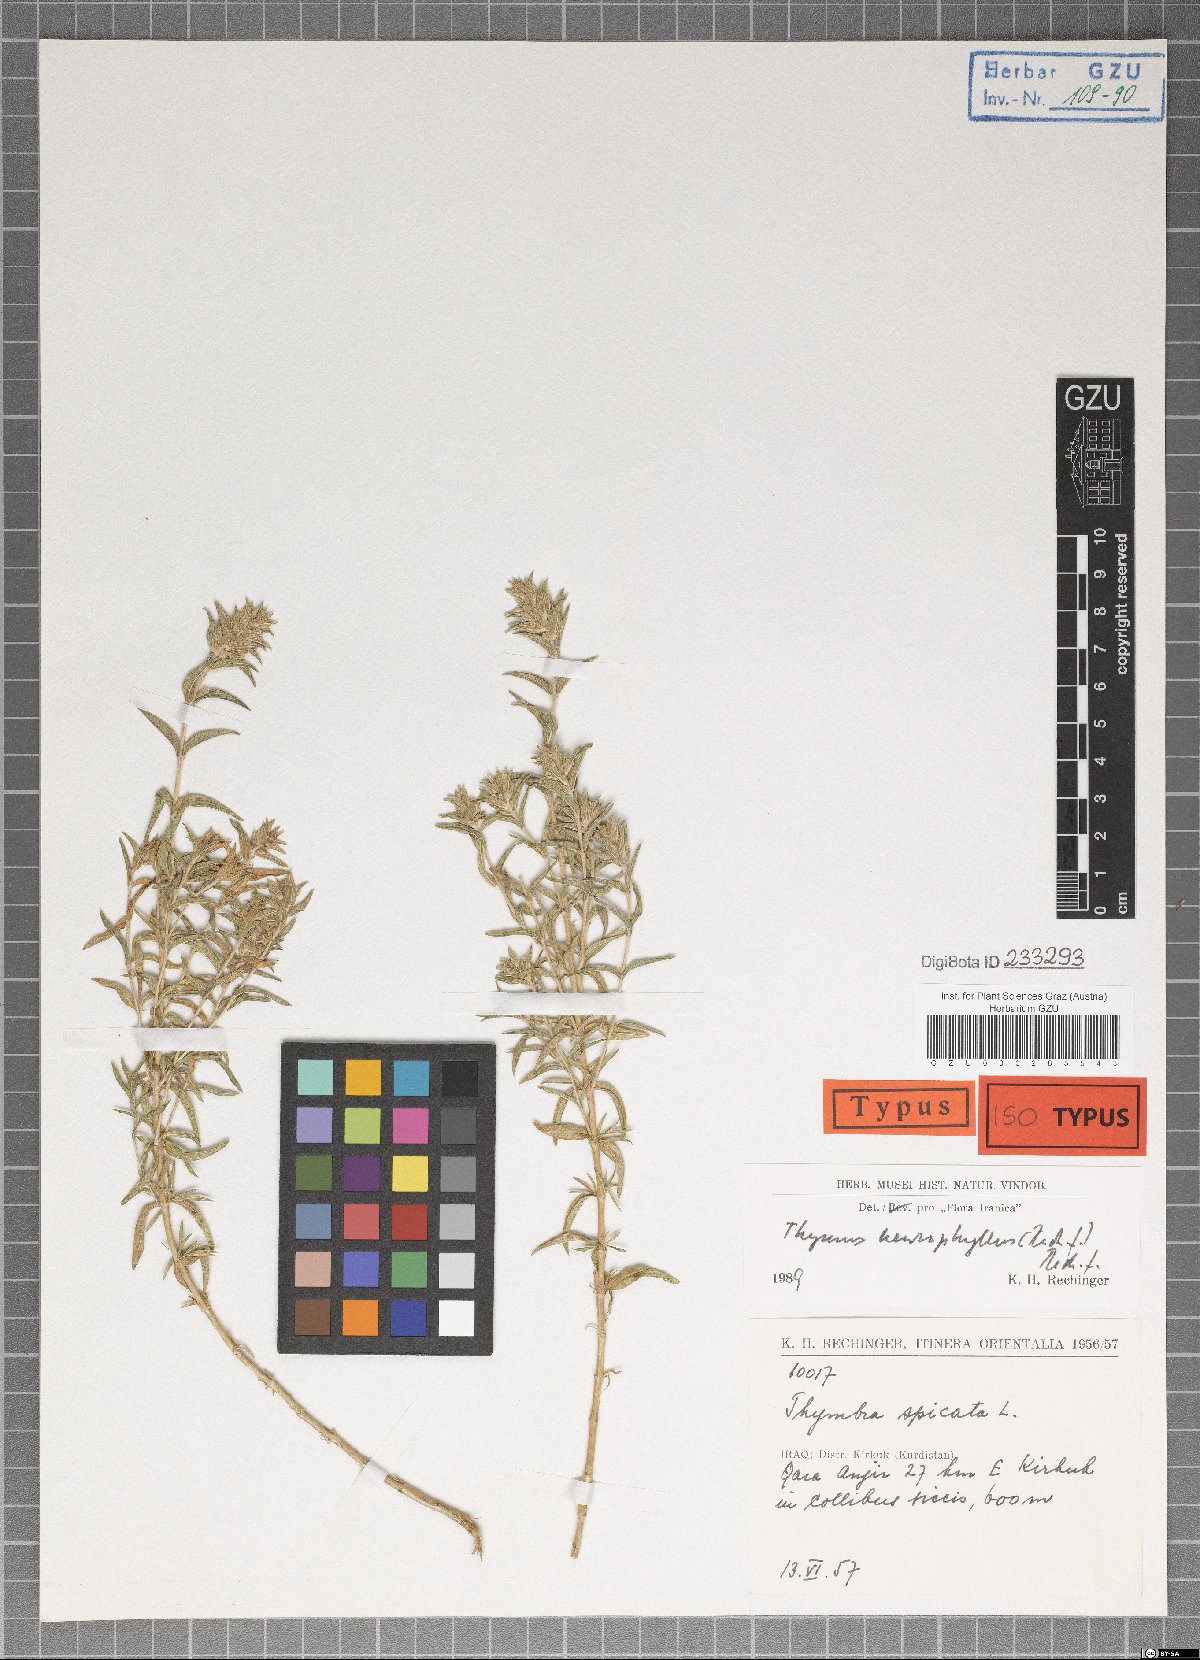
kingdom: Plantae
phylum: Tracheophyta
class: Magnoliopsida
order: Lamiales
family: Lamiaceae
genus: Thymus
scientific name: Thymus neurophyllus
